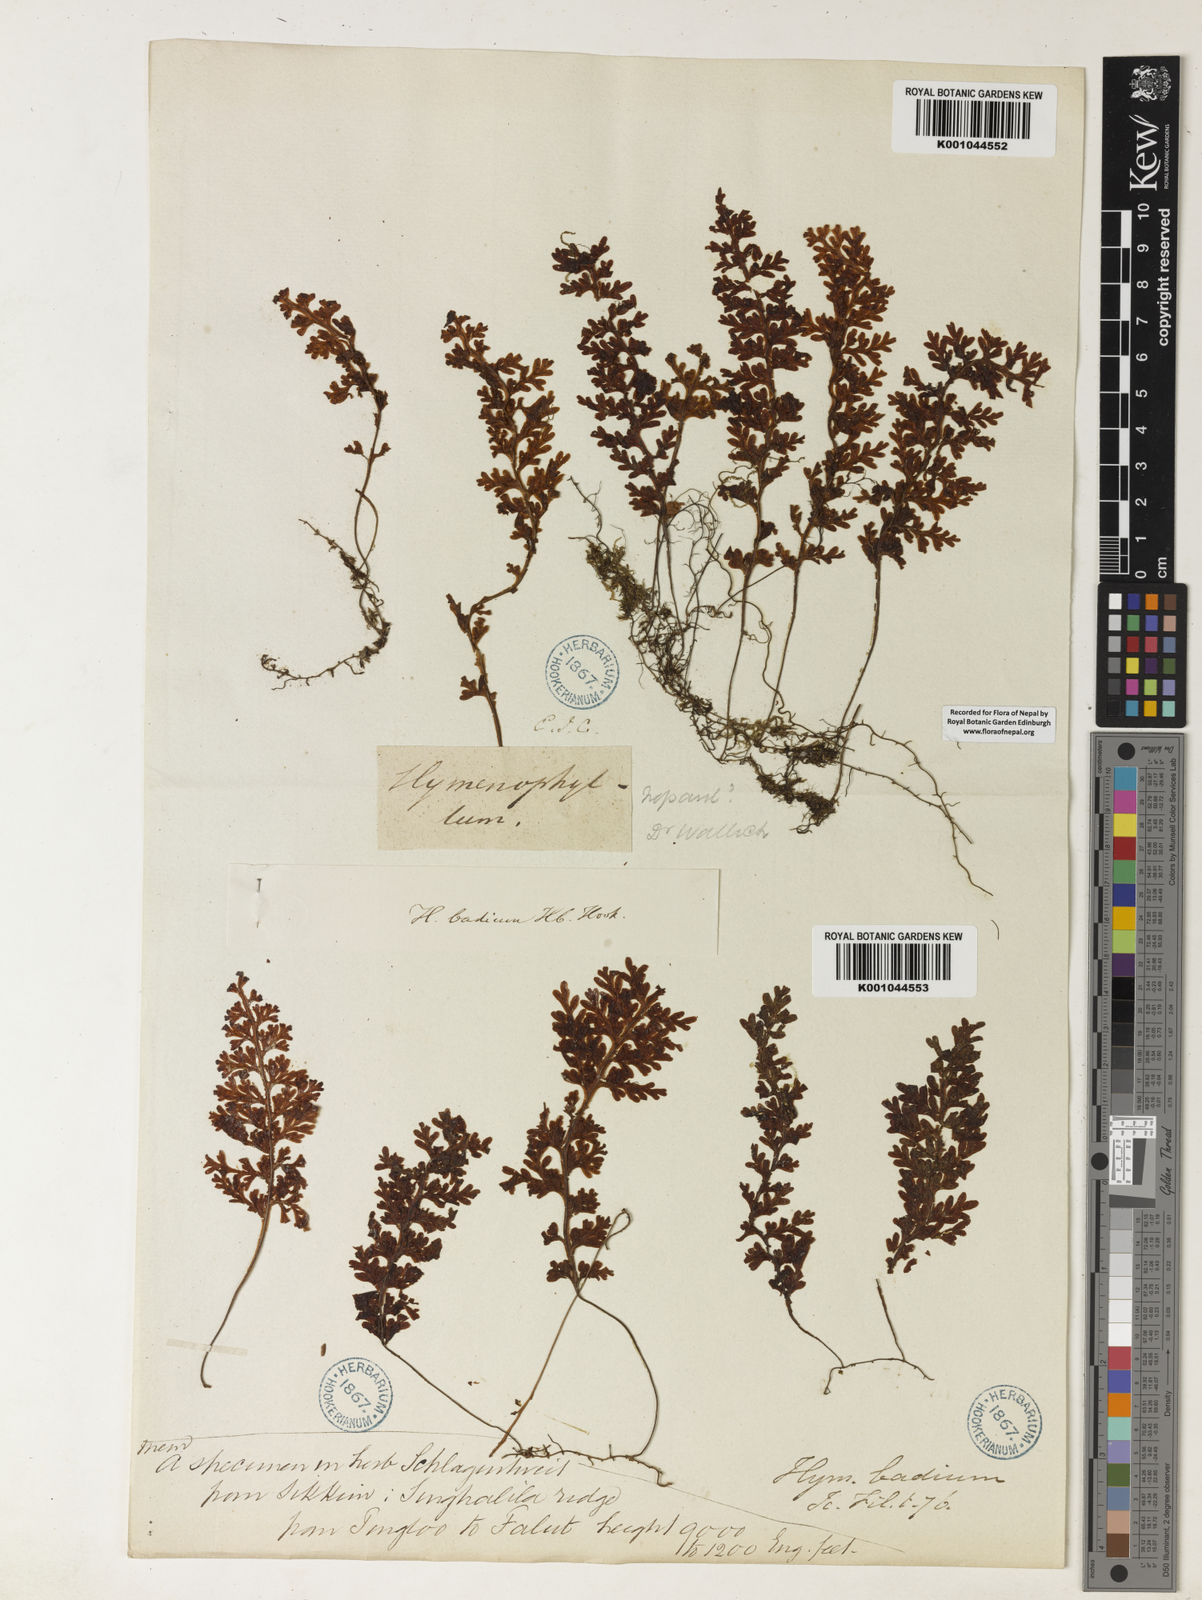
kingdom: Plantae
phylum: Tracheophyta
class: Polypodiopsida
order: Hymenophyllales
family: Hymenophyllaceae
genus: Hymenophyllum
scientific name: Hymenophyllum badium
